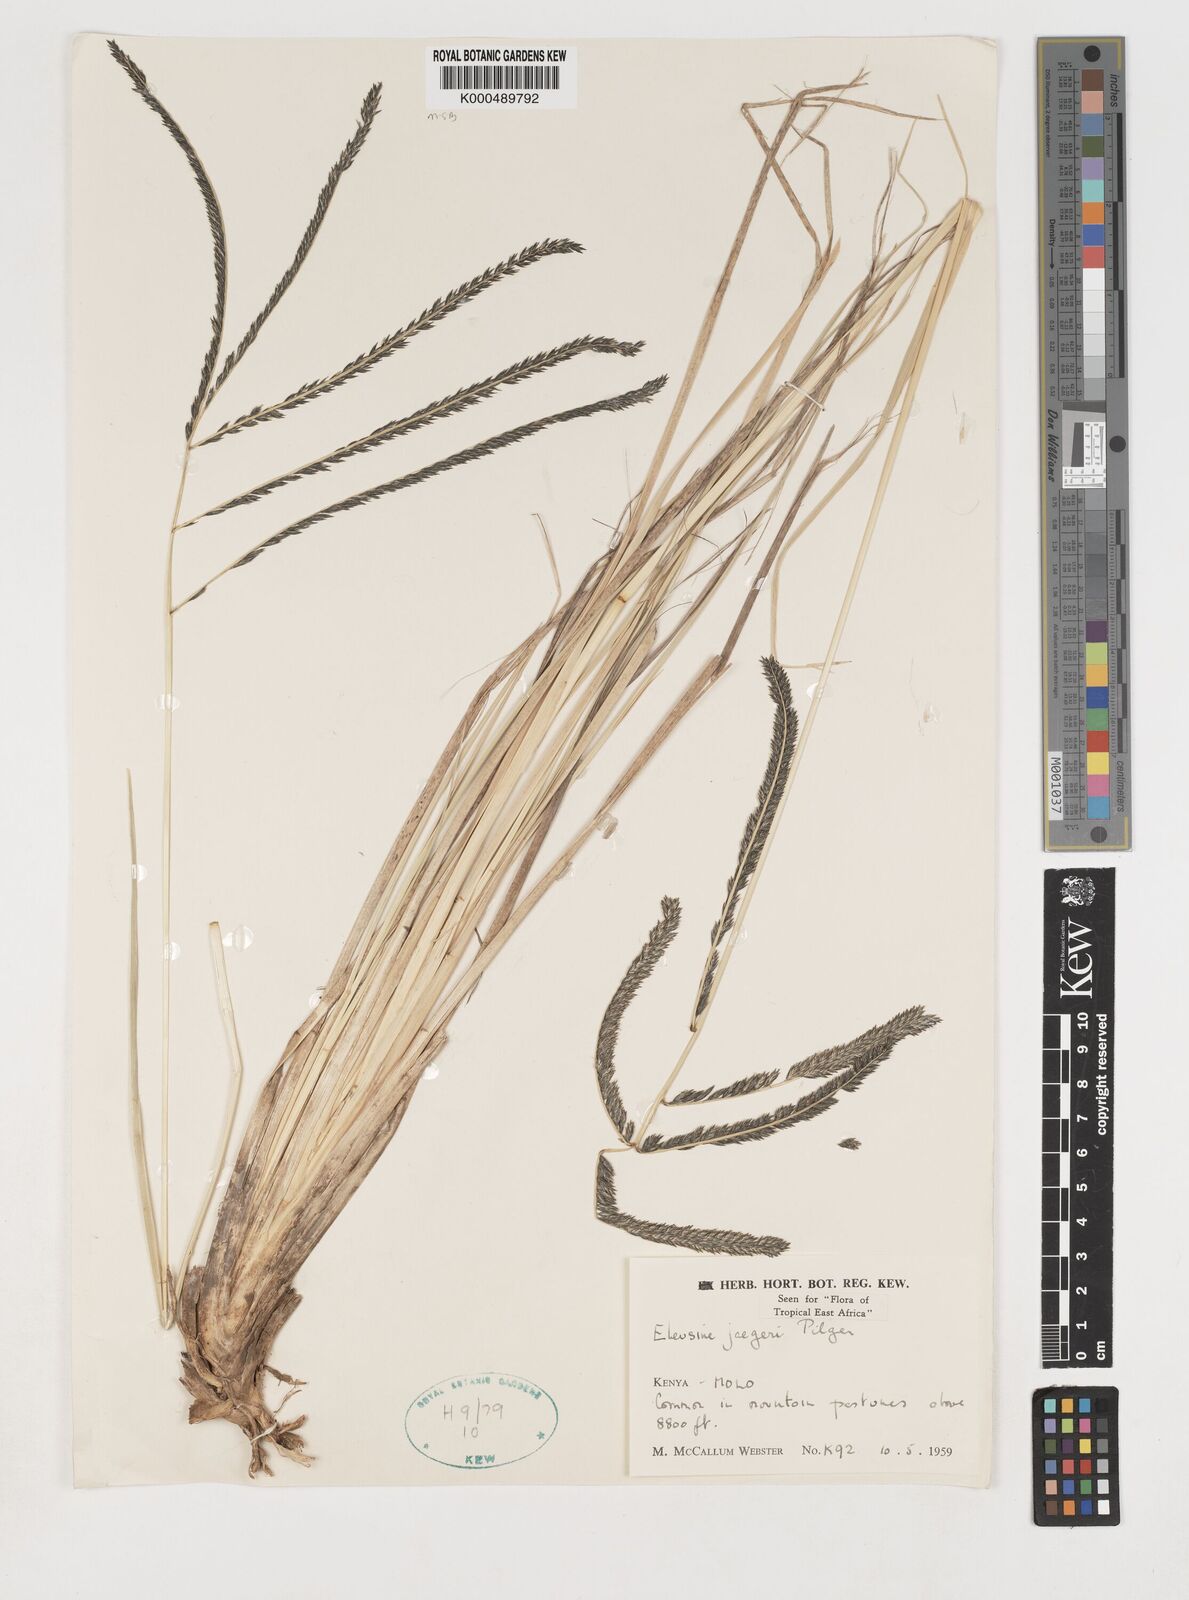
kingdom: Plantae
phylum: Tracheophyta
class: Liliopsida
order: Poales
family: Poaceae
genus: Eleusine
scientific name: Eleusine jaegeri
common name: Manyatta grass
